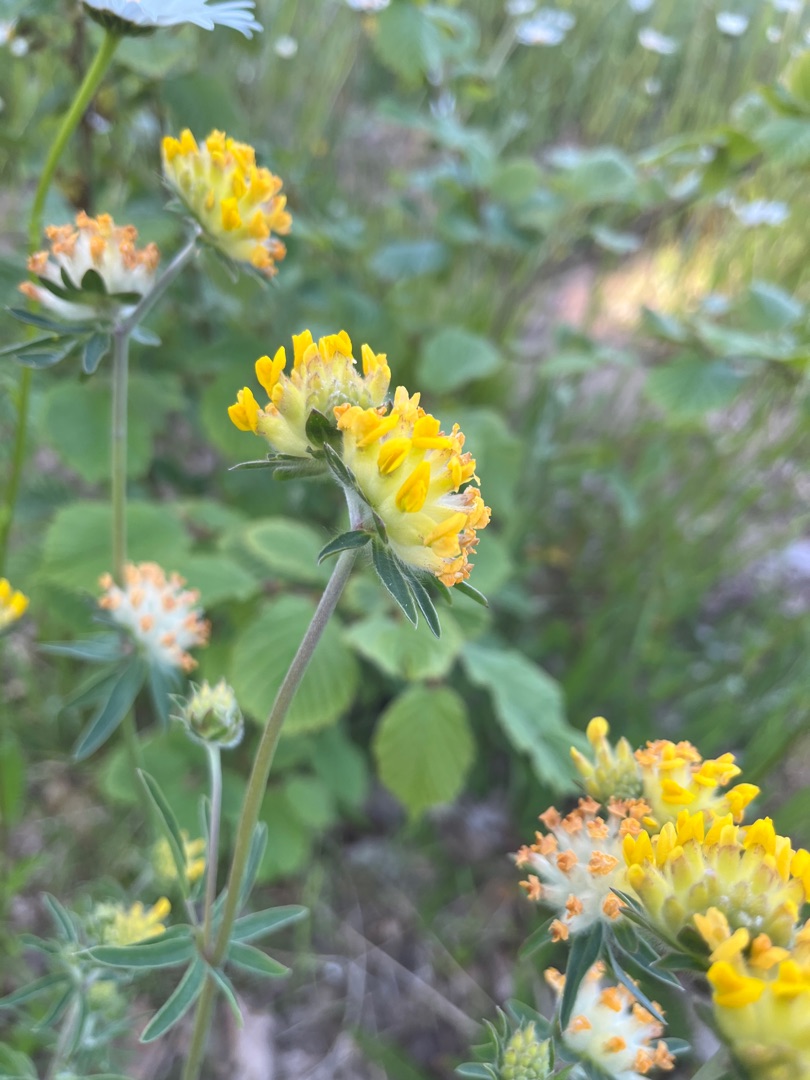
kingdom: Plantae
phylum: Tracheophyta
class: Magnoliopsida
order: Fabales
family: Fabaceae
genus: Anthyllis
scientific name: Anthyllis vulneraria
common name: Rundbælg
